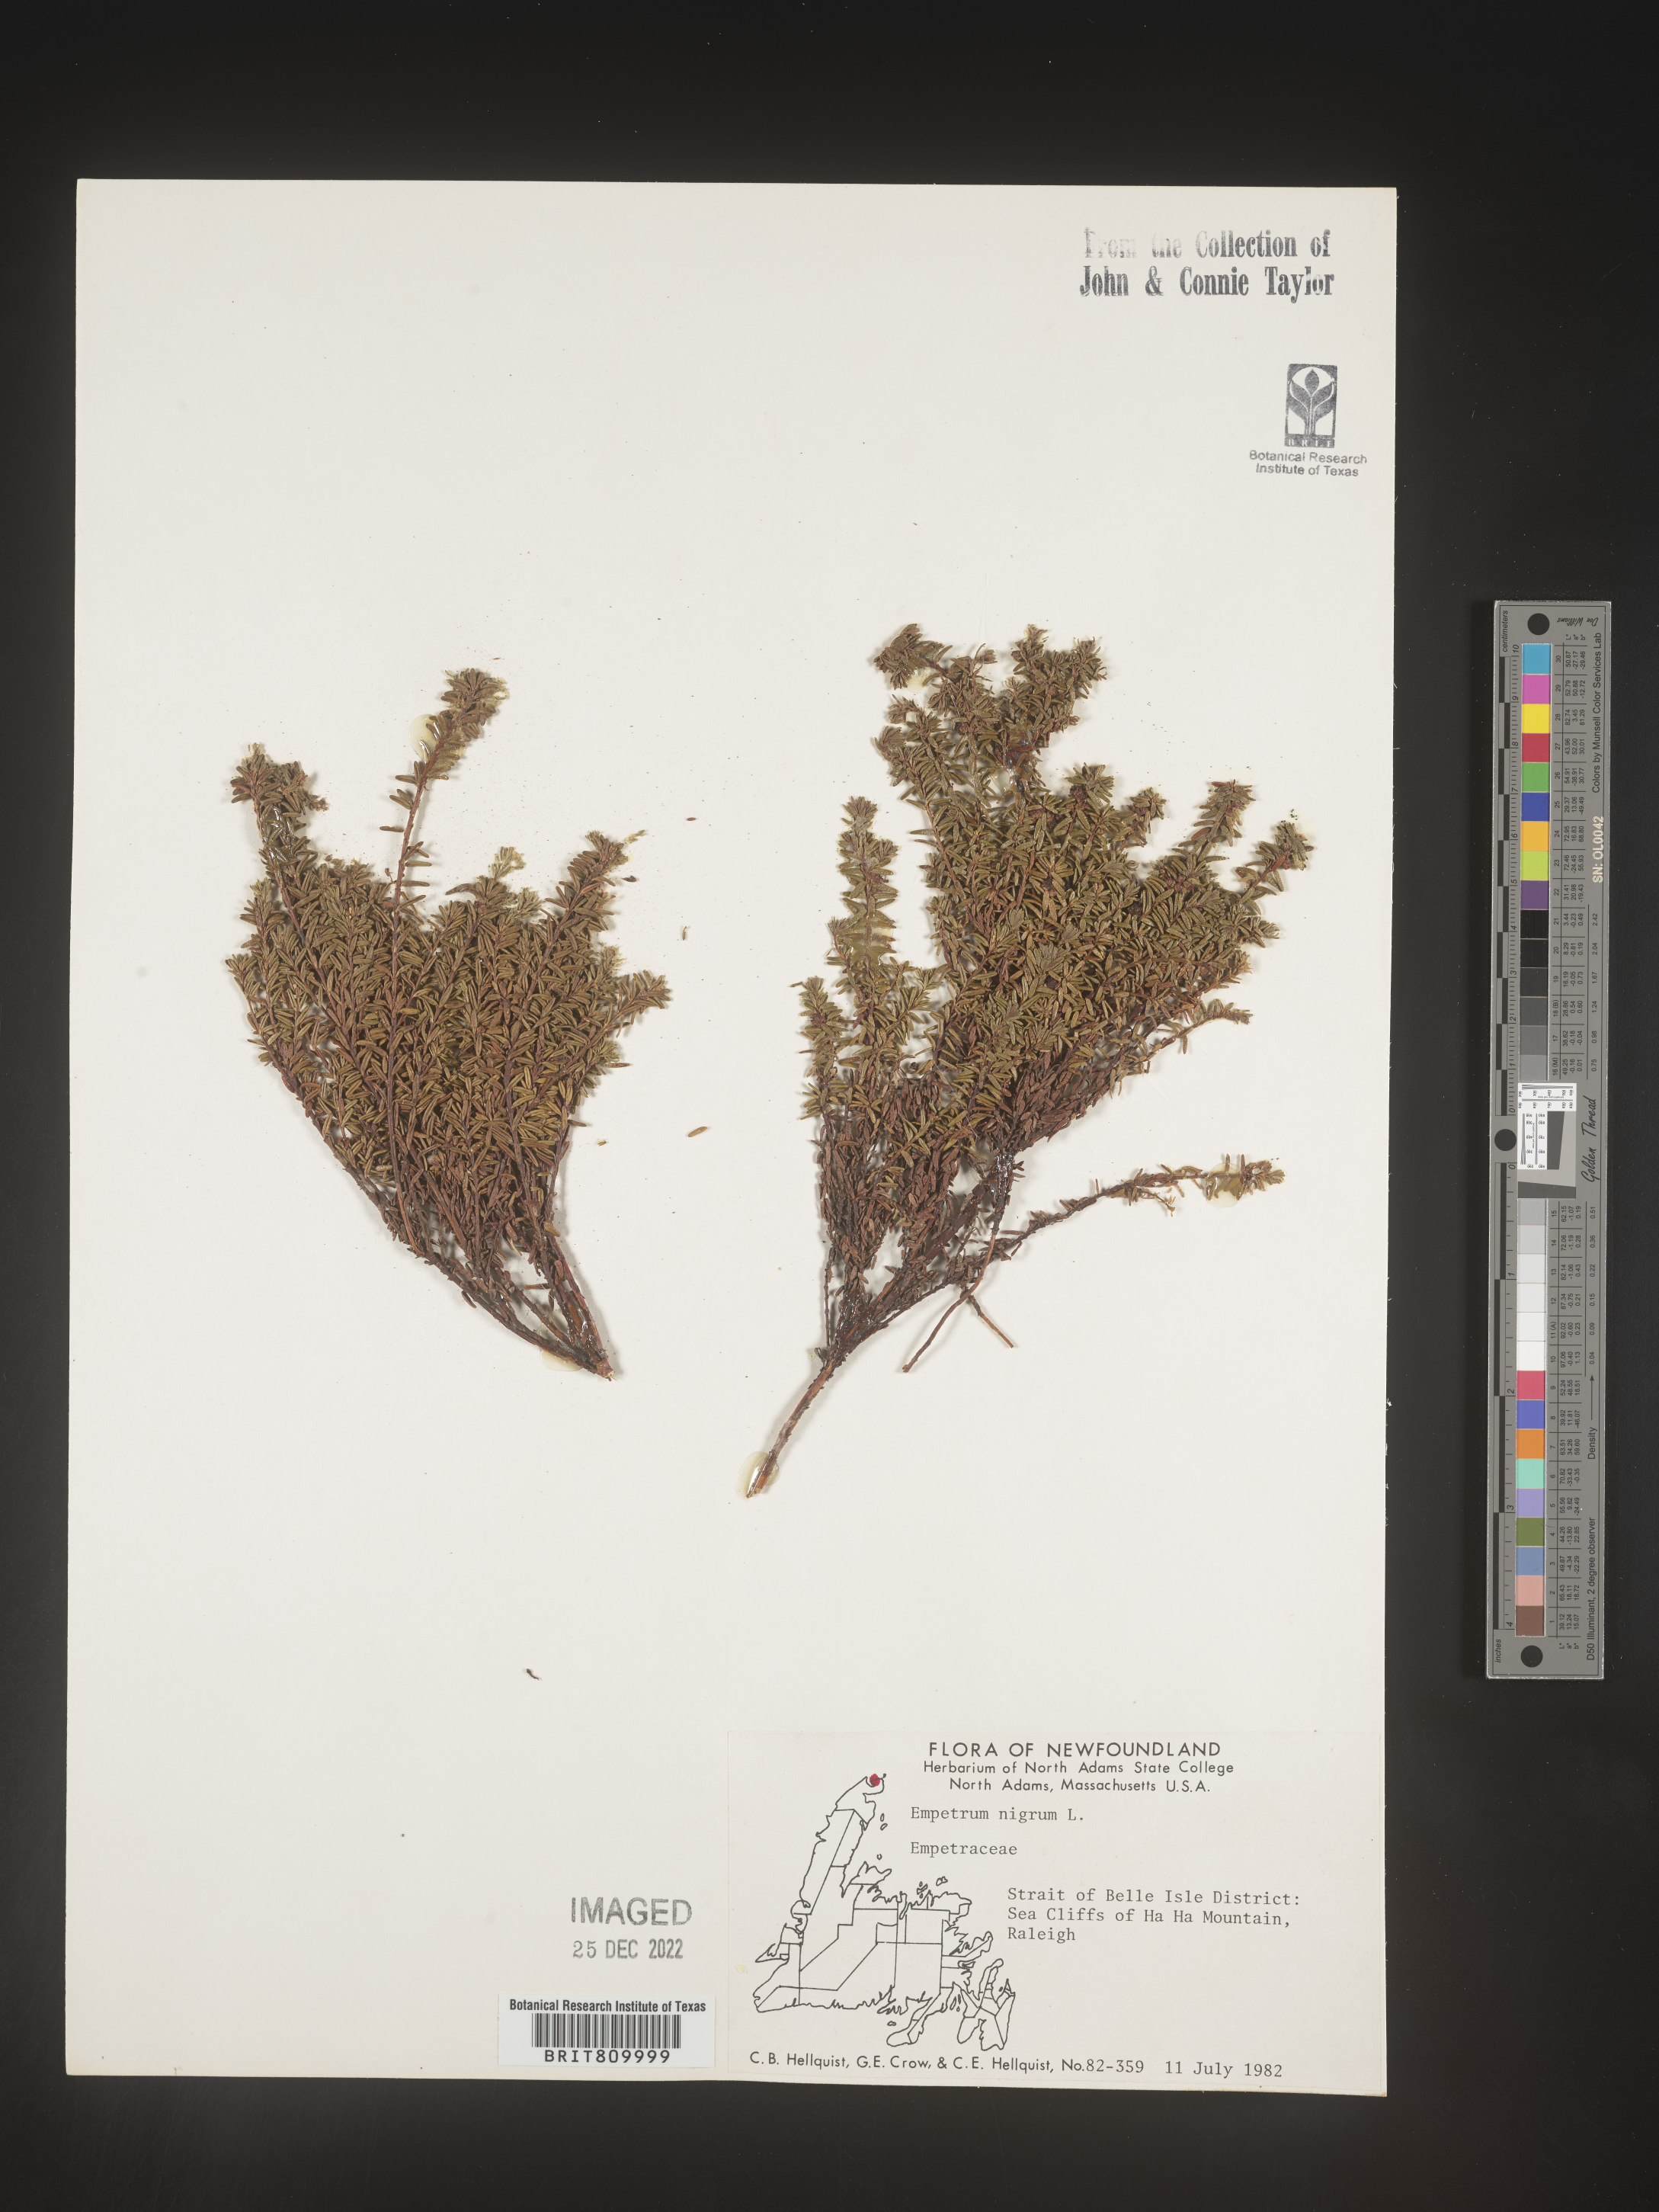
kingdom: Plantae
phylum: Tracheophyta
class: Magnoliopsida
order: Ericales
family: Ericaceae
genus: Empetrum
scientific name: Empetrum
